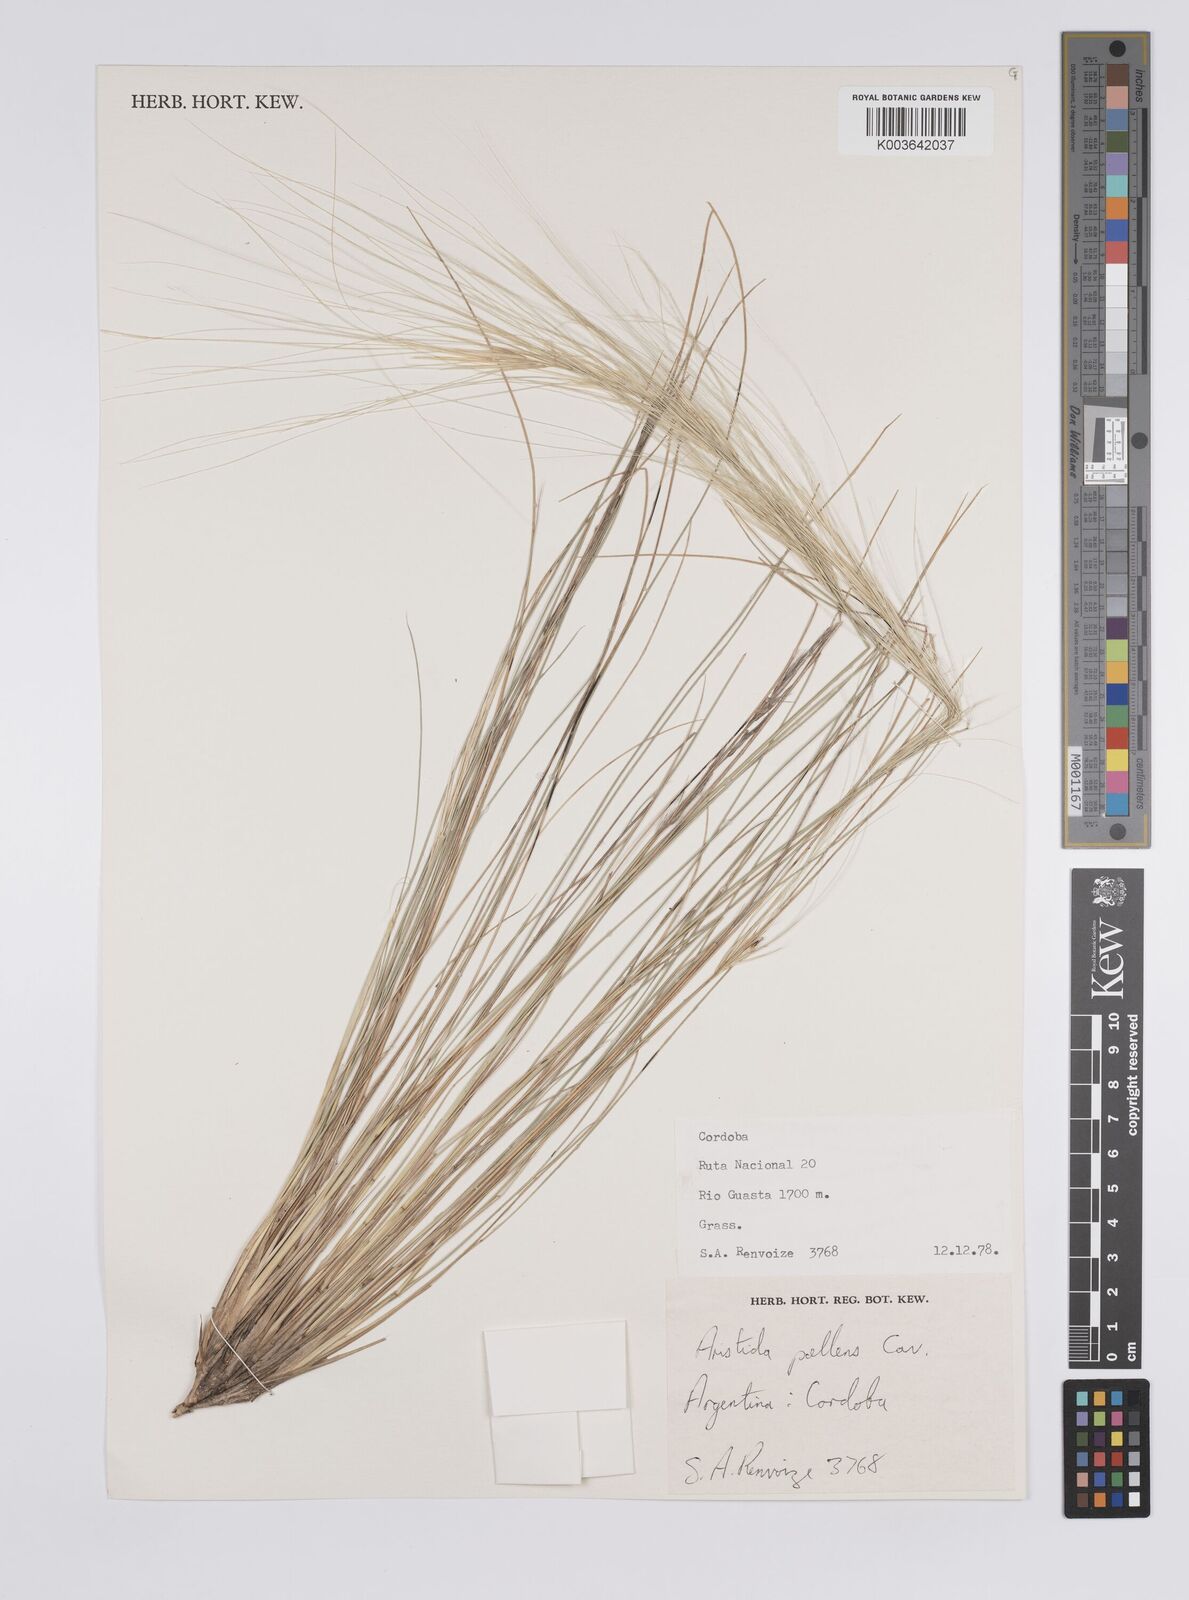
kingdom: Plantae
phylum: Tracheophyta
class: Liliopsida
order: Poales
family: Poaceae
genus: Aristida
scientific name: Aristida pallens
